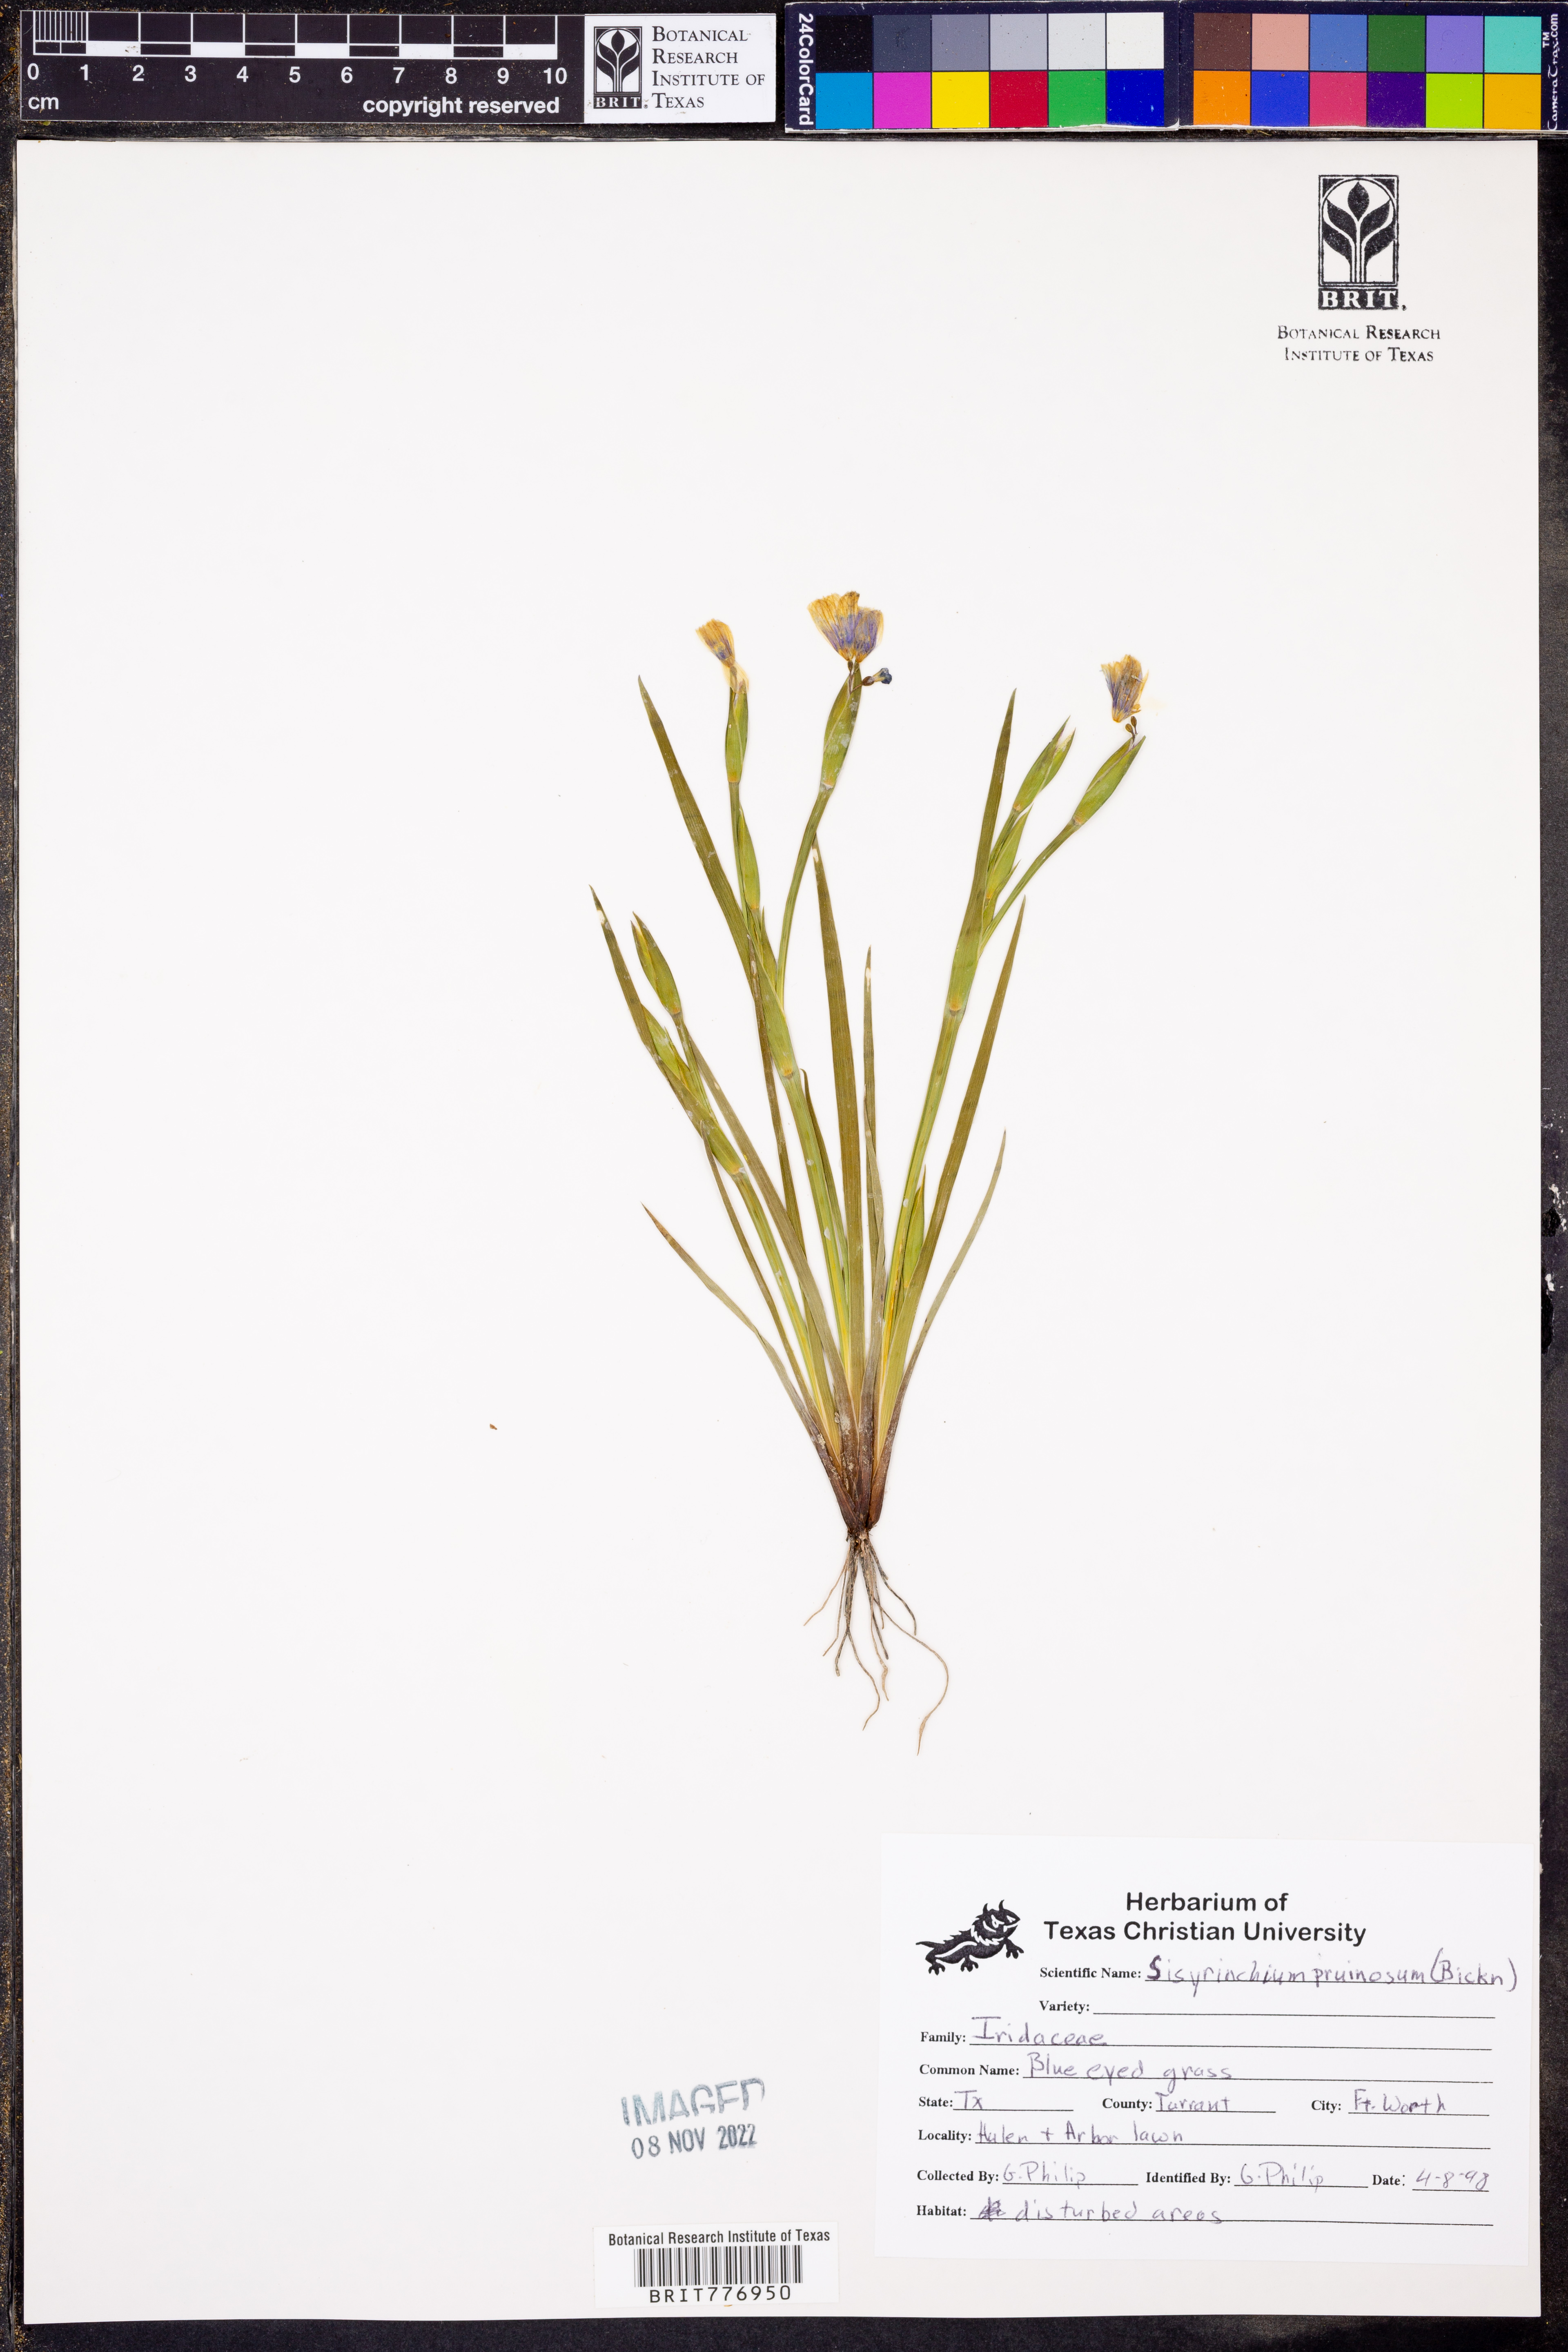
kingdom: Plantae
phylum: Tracheophyta
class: Liliopsida
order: Asparagales
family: Iridaceae
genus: Sisyrinchium
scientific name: Sisyrinchium pruinosum
